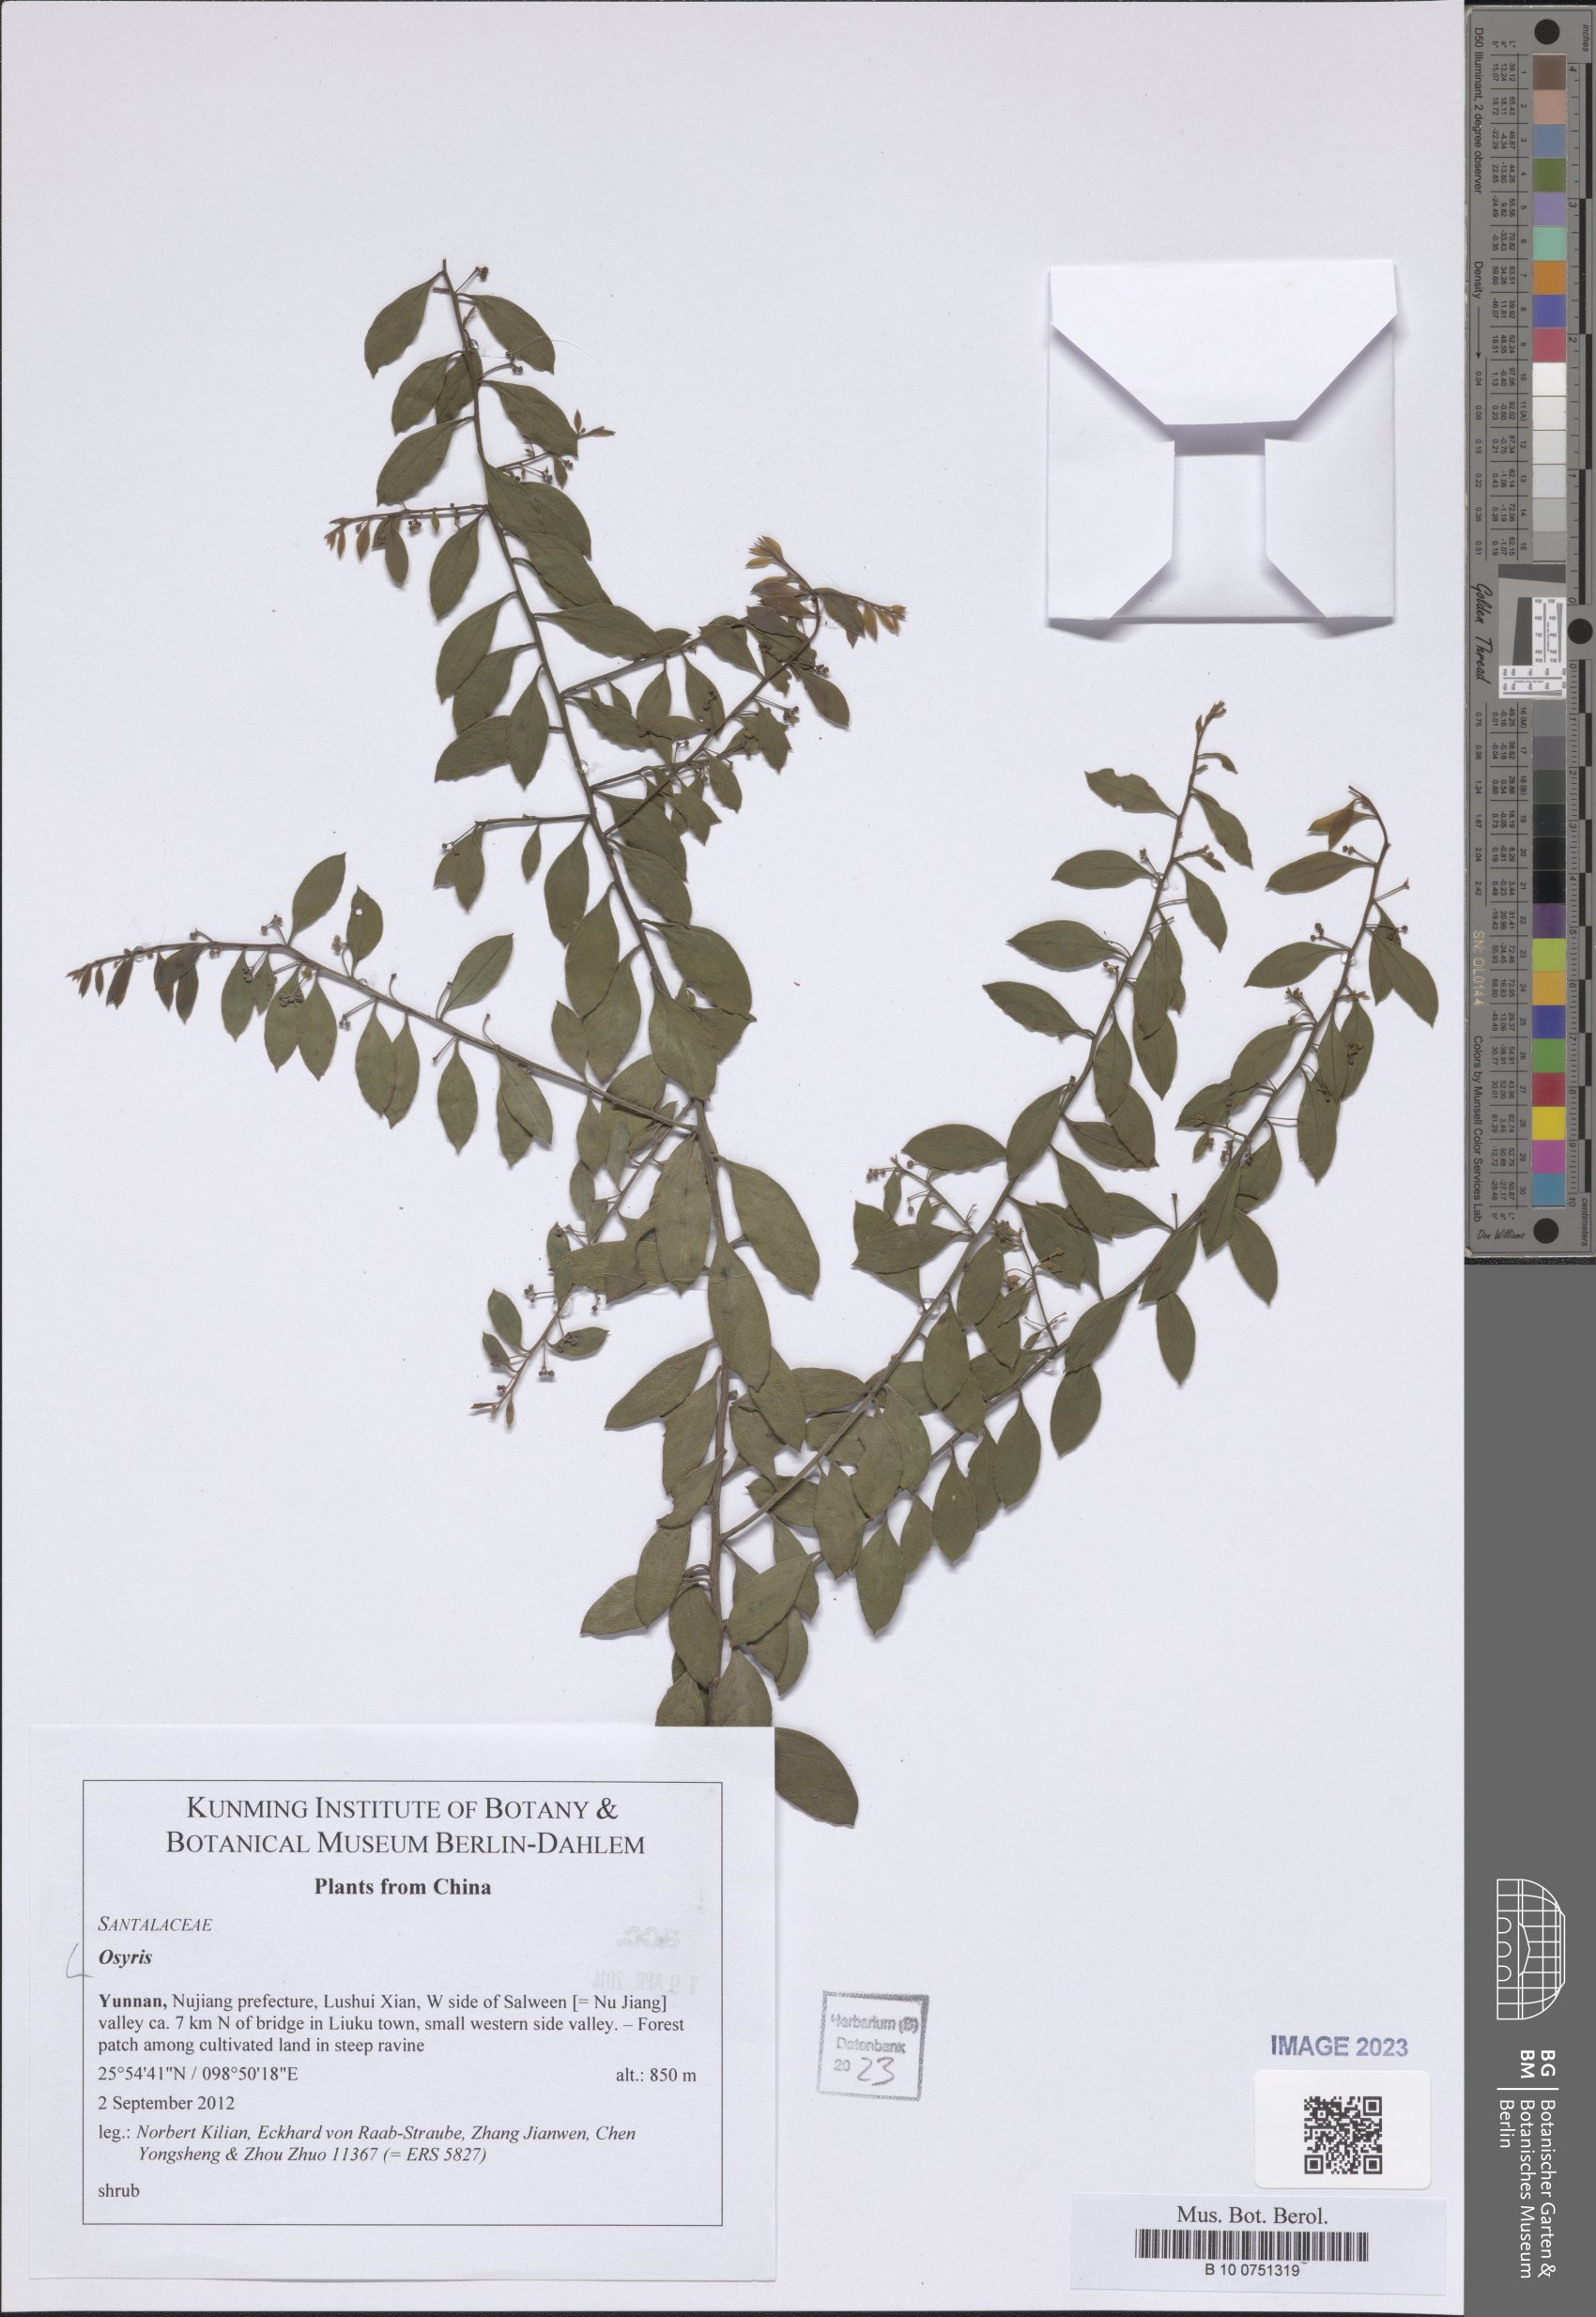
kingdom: Plantae
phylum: Tracheophyta
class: Magnoliopsida
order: Santalales
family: Santalaceae
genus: Osyris
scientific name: Osyris
